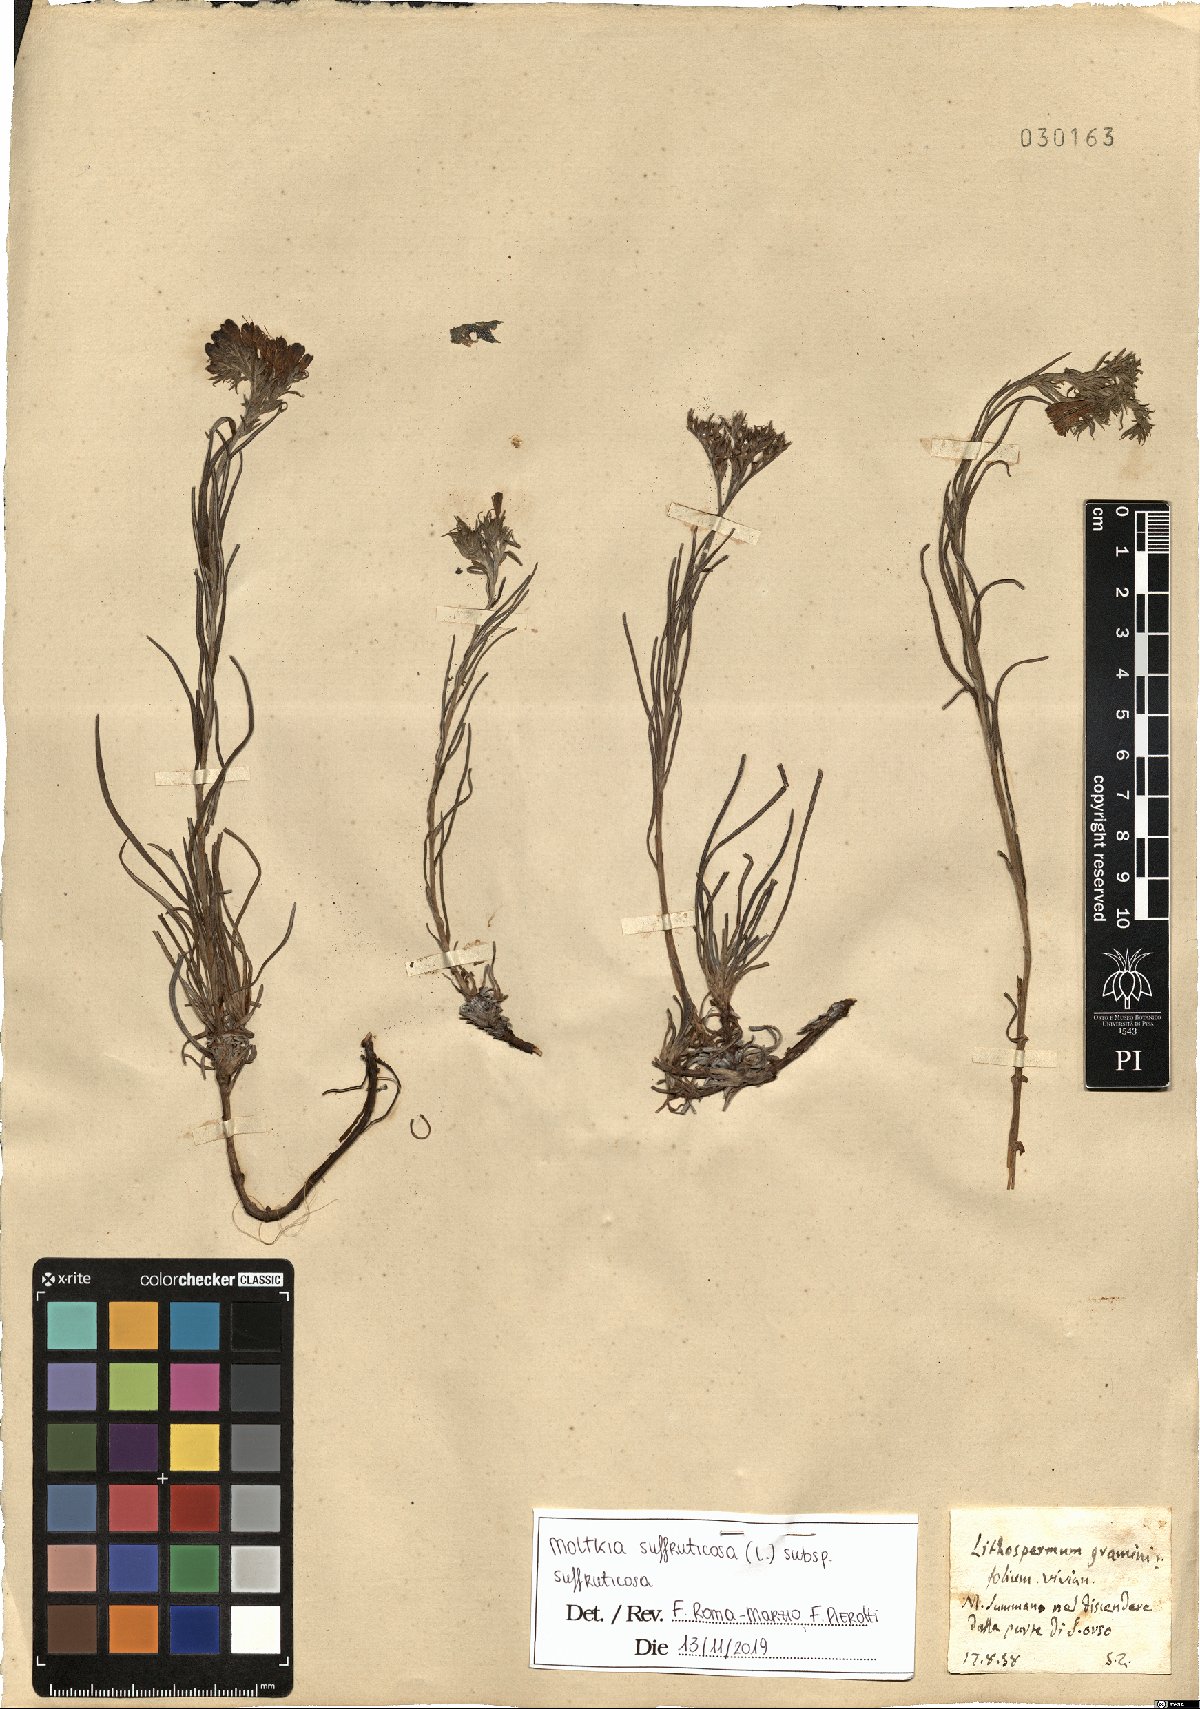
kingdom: Plantae
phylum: Tracheophyta
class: Magnoliopsida
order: Boraginales
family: Boraginaceae
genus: Moltkia
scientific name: Moltkia suffruticosa
